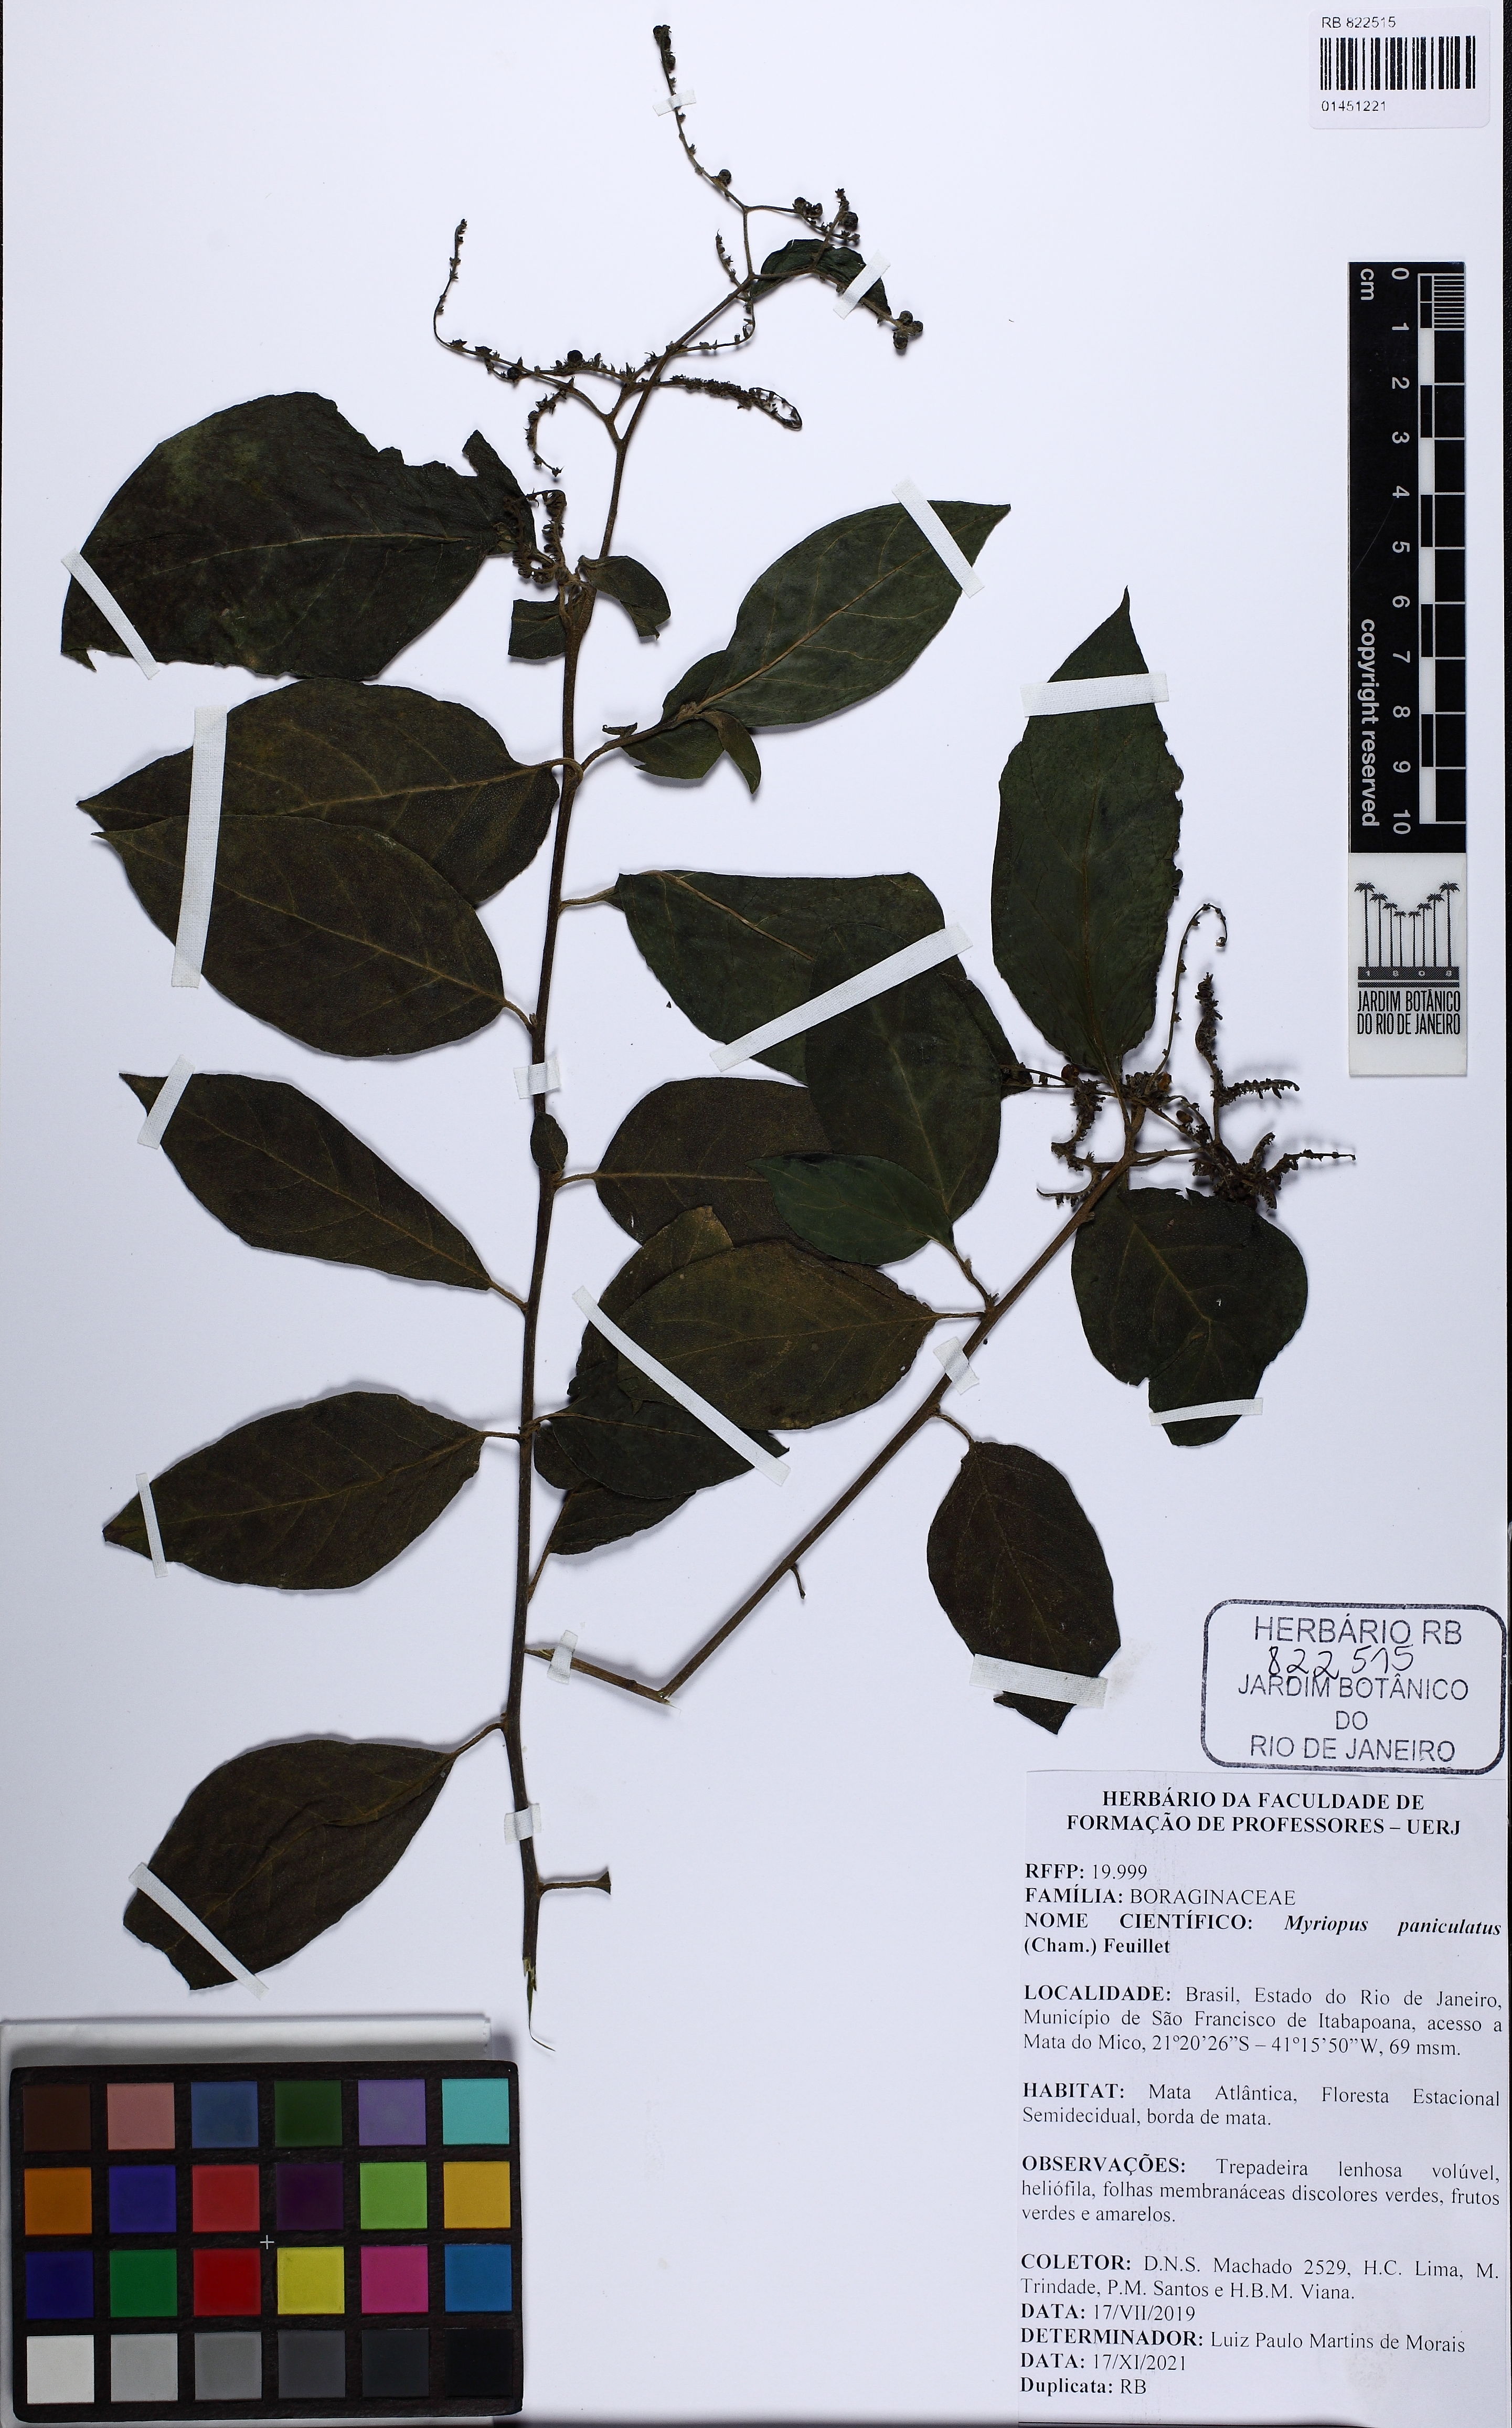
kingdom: Plantae
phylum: Tracheophyta
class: Magnoliopsida
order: Boraginales
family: Heliotropiaceae
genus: Myriopus
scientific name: Myriopus paniculatus
